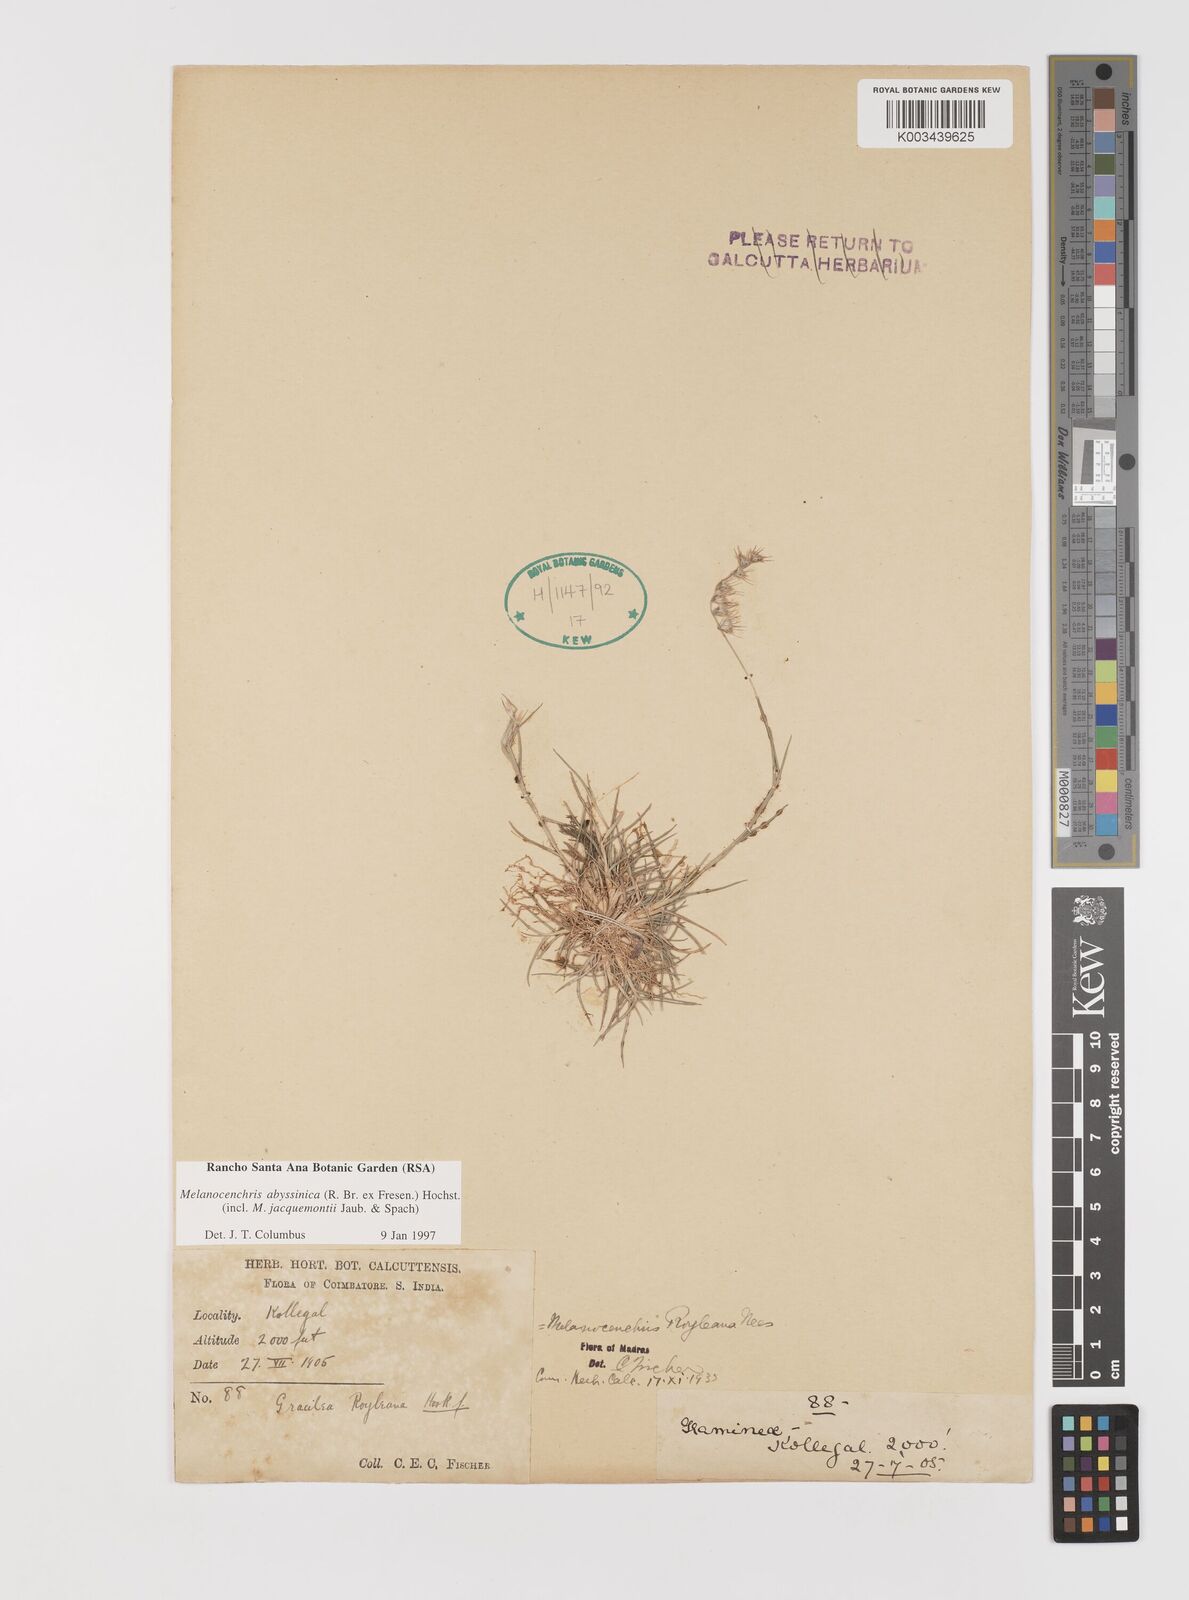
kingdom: Plantae
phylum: Tracheophyta
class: Liliopsida
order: Poales
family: Poaceae
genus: Melanocenchris
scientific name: Melanocenchris abyssinica
